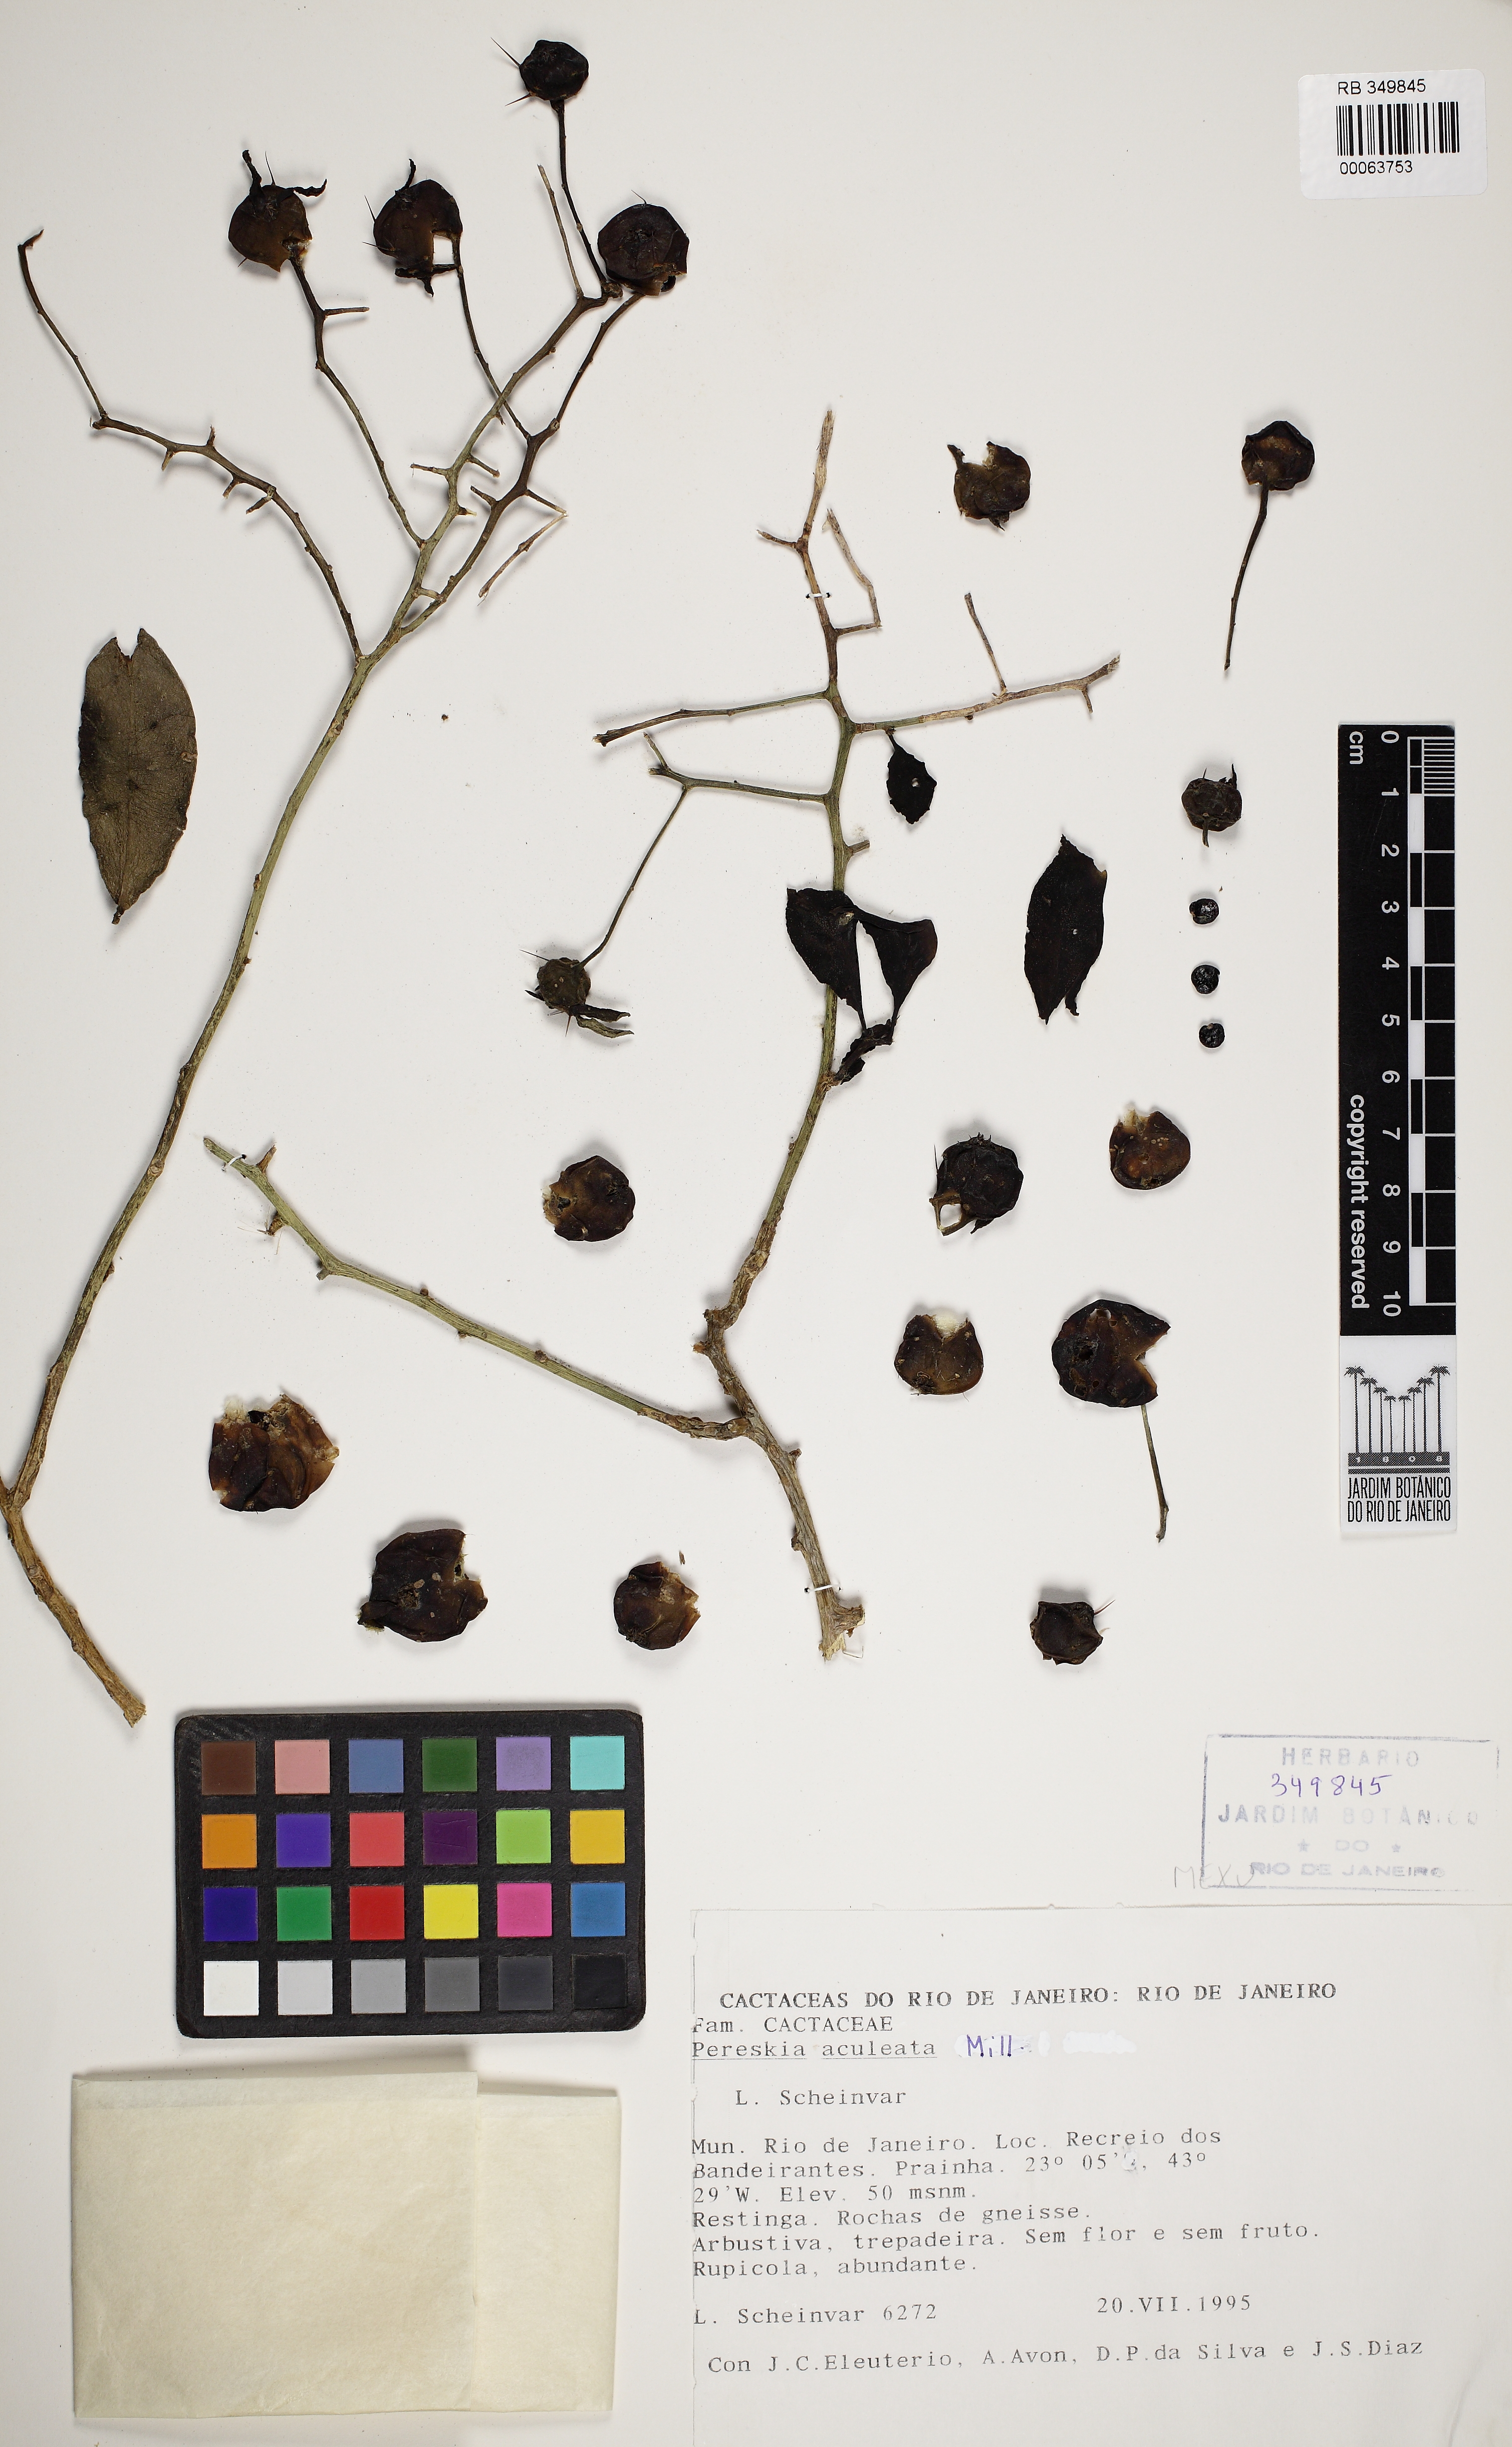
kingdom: Plantae
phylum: Tracheophyta
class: Magnoliopsida
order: Caryophyllales
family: Cactaceae
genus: Pereskia
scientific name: Pereskia aculeata
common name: Barbados gooseberry
